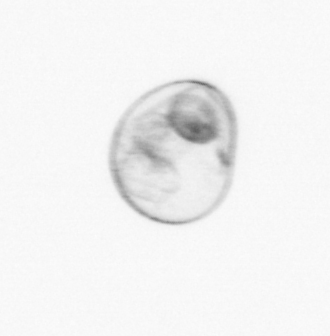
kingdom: Chromista
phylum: Myzozoa
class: Dinophyceae
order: Noctilucales
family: Noctilucaceae
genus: Noctiluca
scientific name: Noctiluca scintillans
